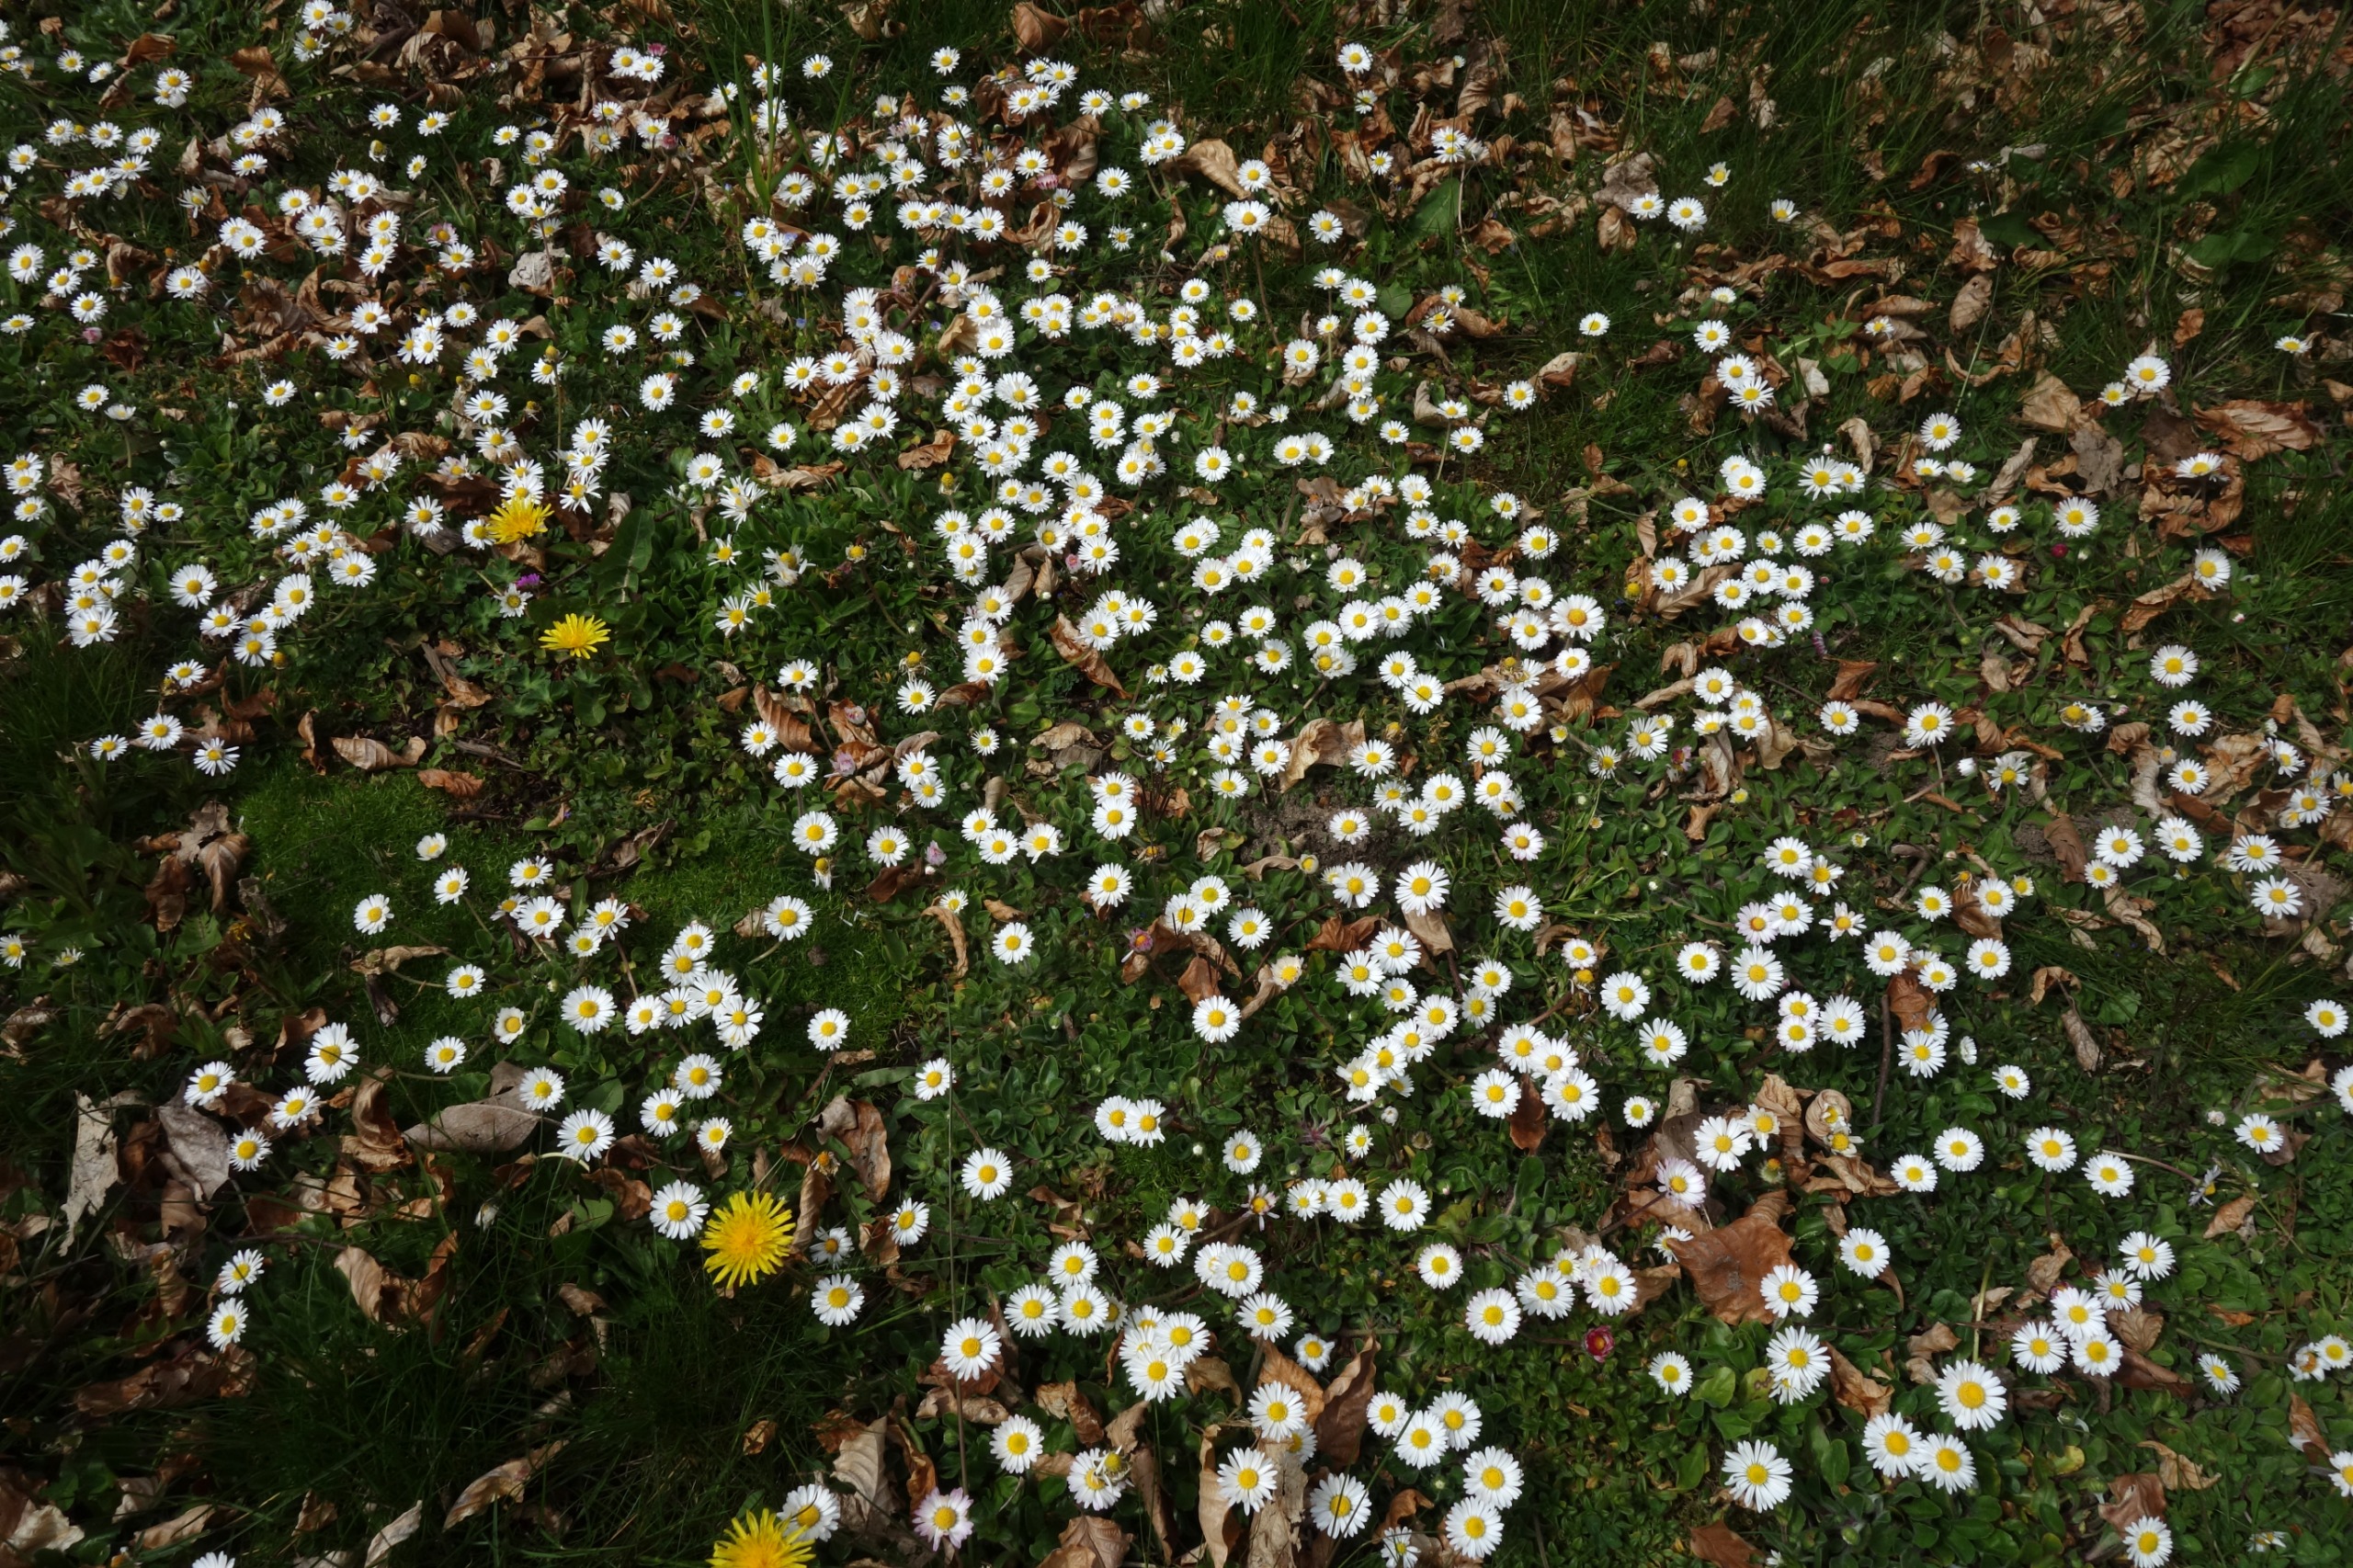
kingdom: Plantae
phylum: Tracheophyta
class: Magnoliopsida
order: Asterales
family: Asteraceae
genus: Bellis
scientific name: Bellis perennis
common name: Tusindfryd
